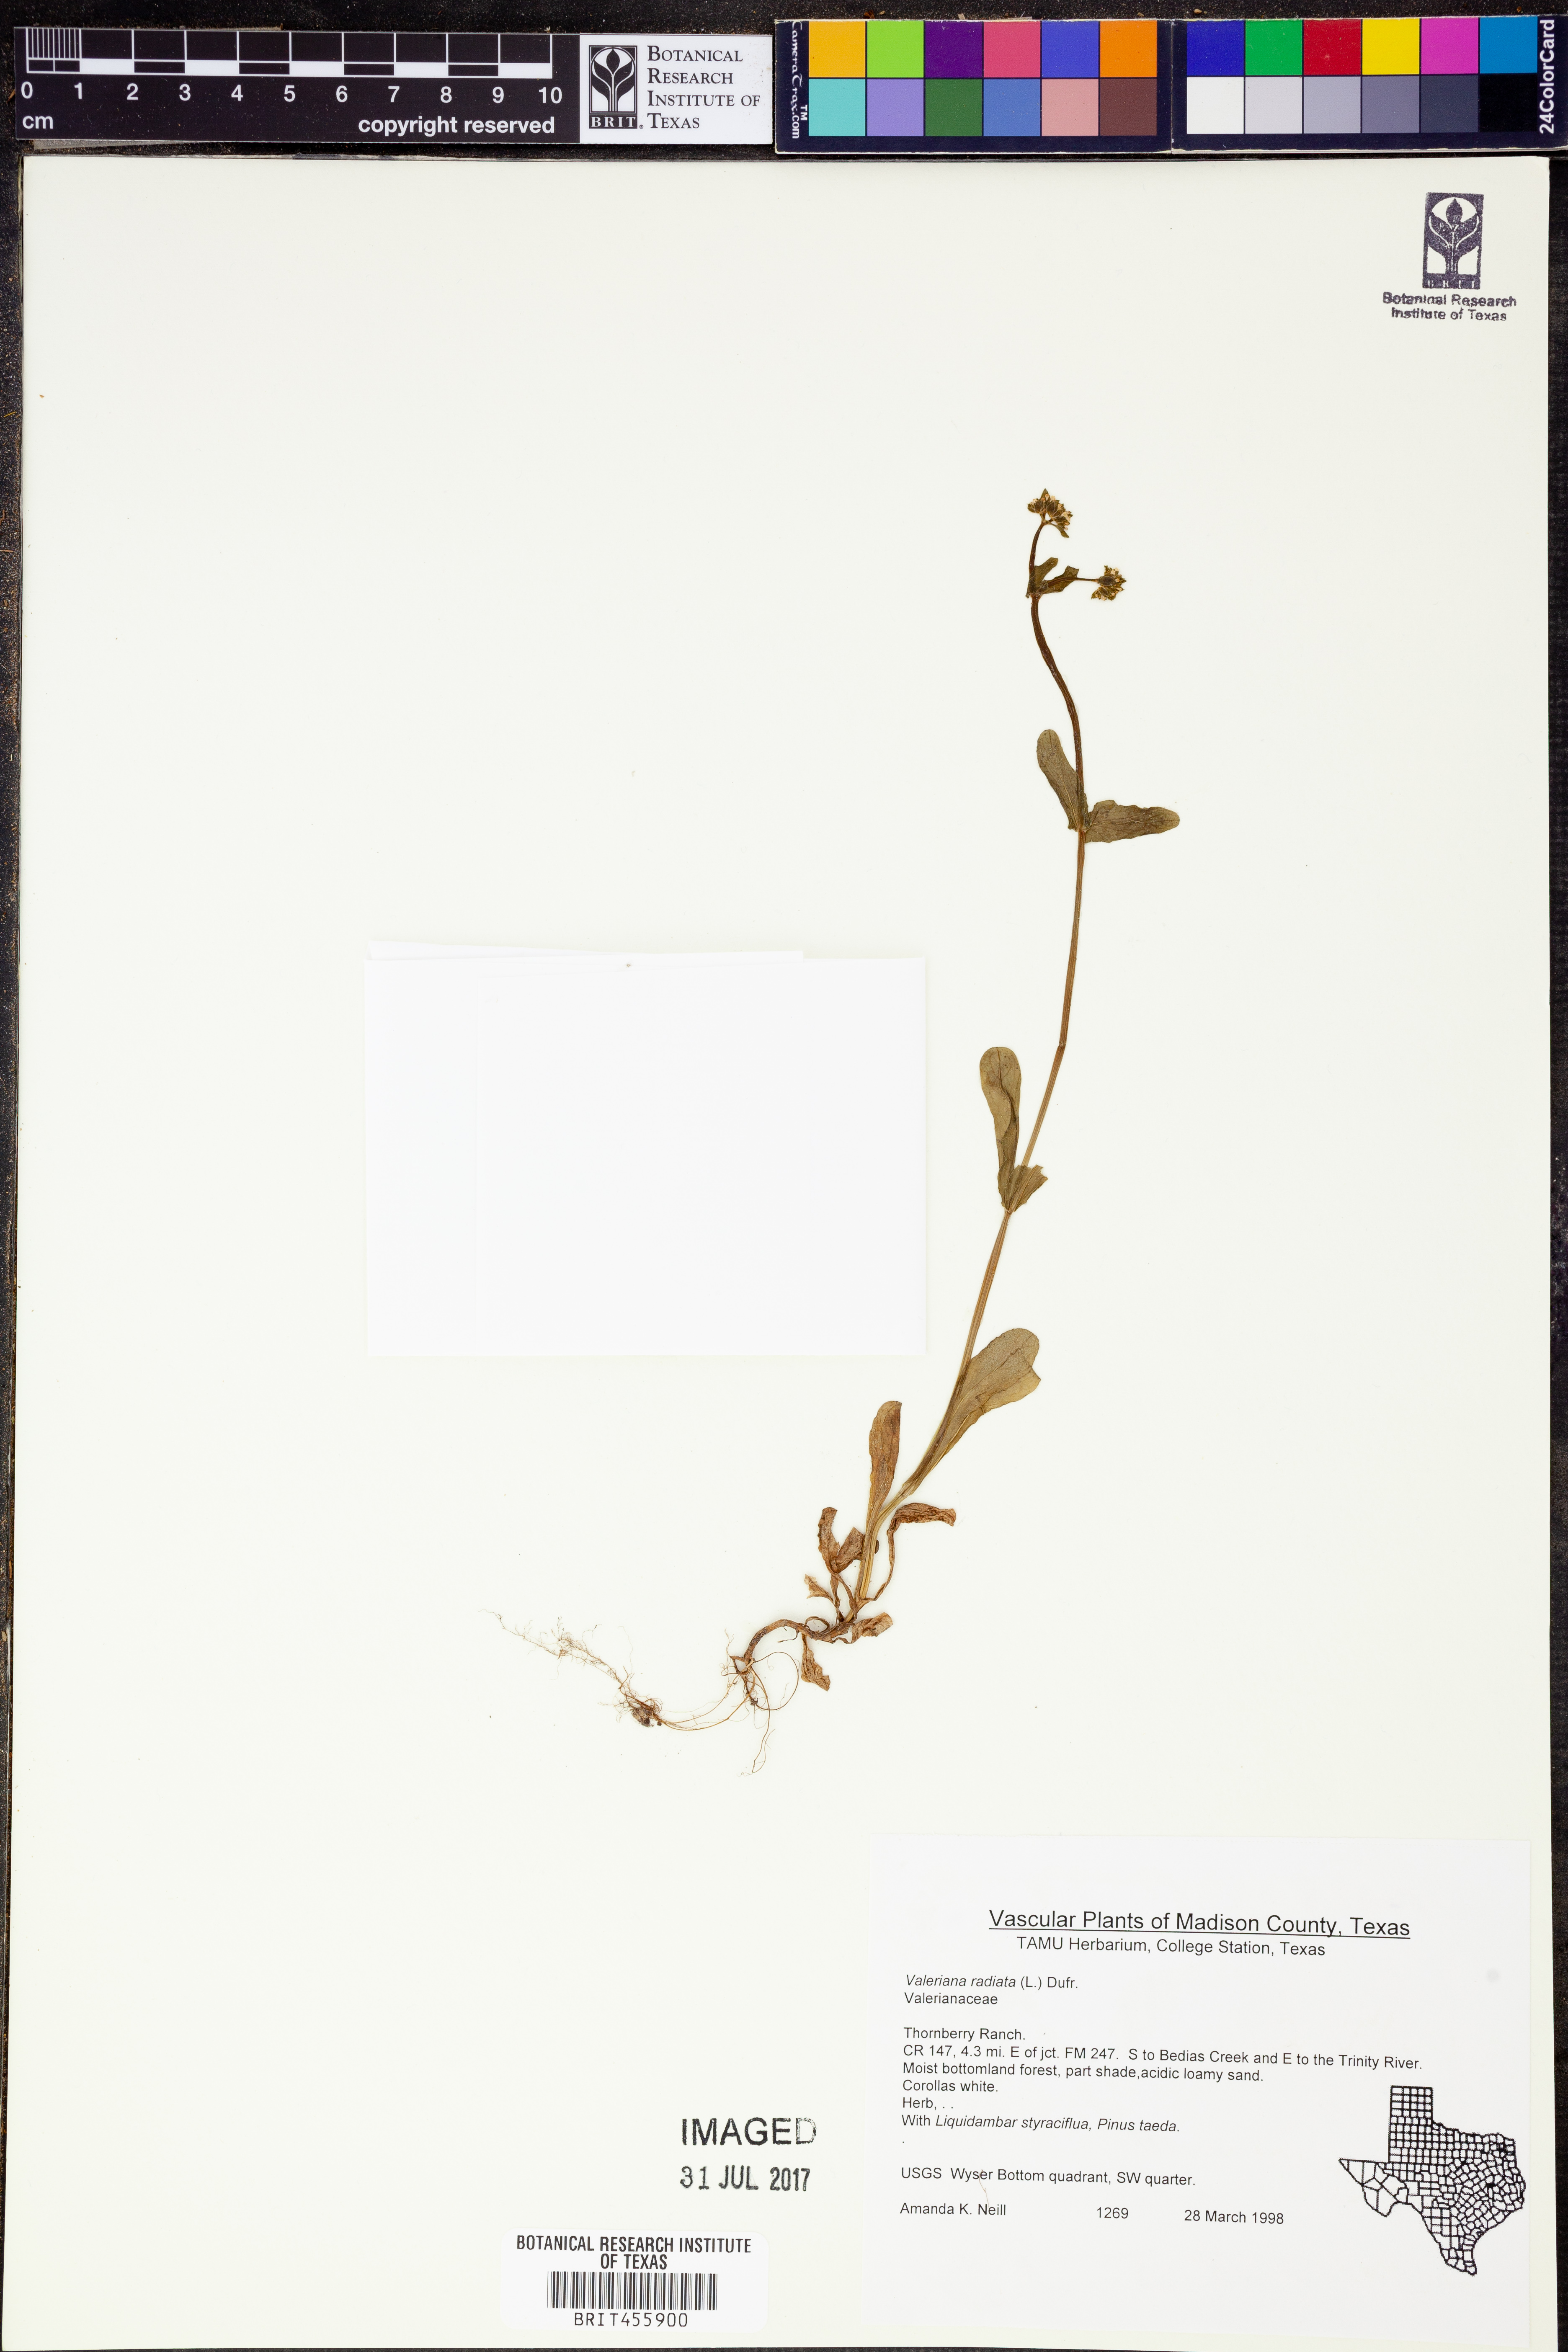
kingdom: Plantae
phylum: Tracheophyta
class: Magnoliopsida
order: Dipsacales
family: Caprifoliaceae
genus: Valerianella
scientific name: Valerianella radiata
